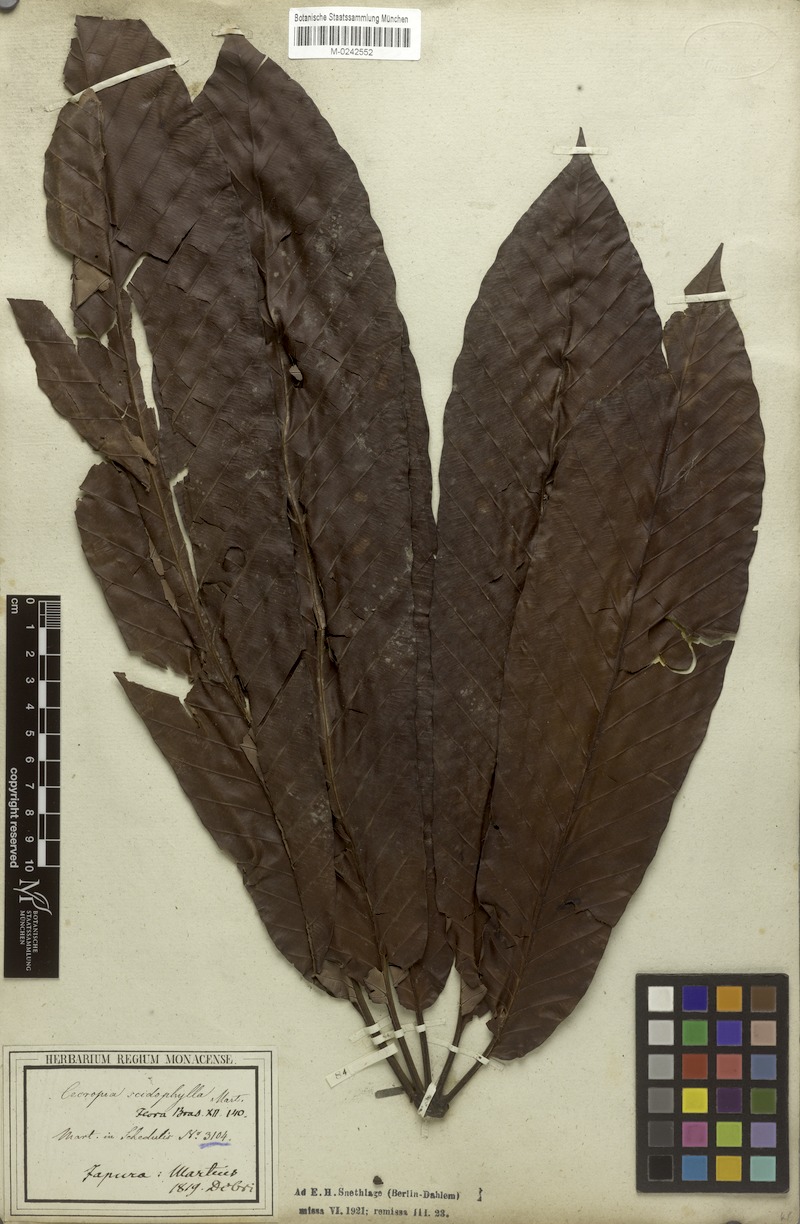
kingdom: Plantae
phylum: Tracheophyta
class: Magnoliopsida
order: Rosales
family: Urticaceae
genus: Cecropia
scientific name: Cecropia sciadophylla
